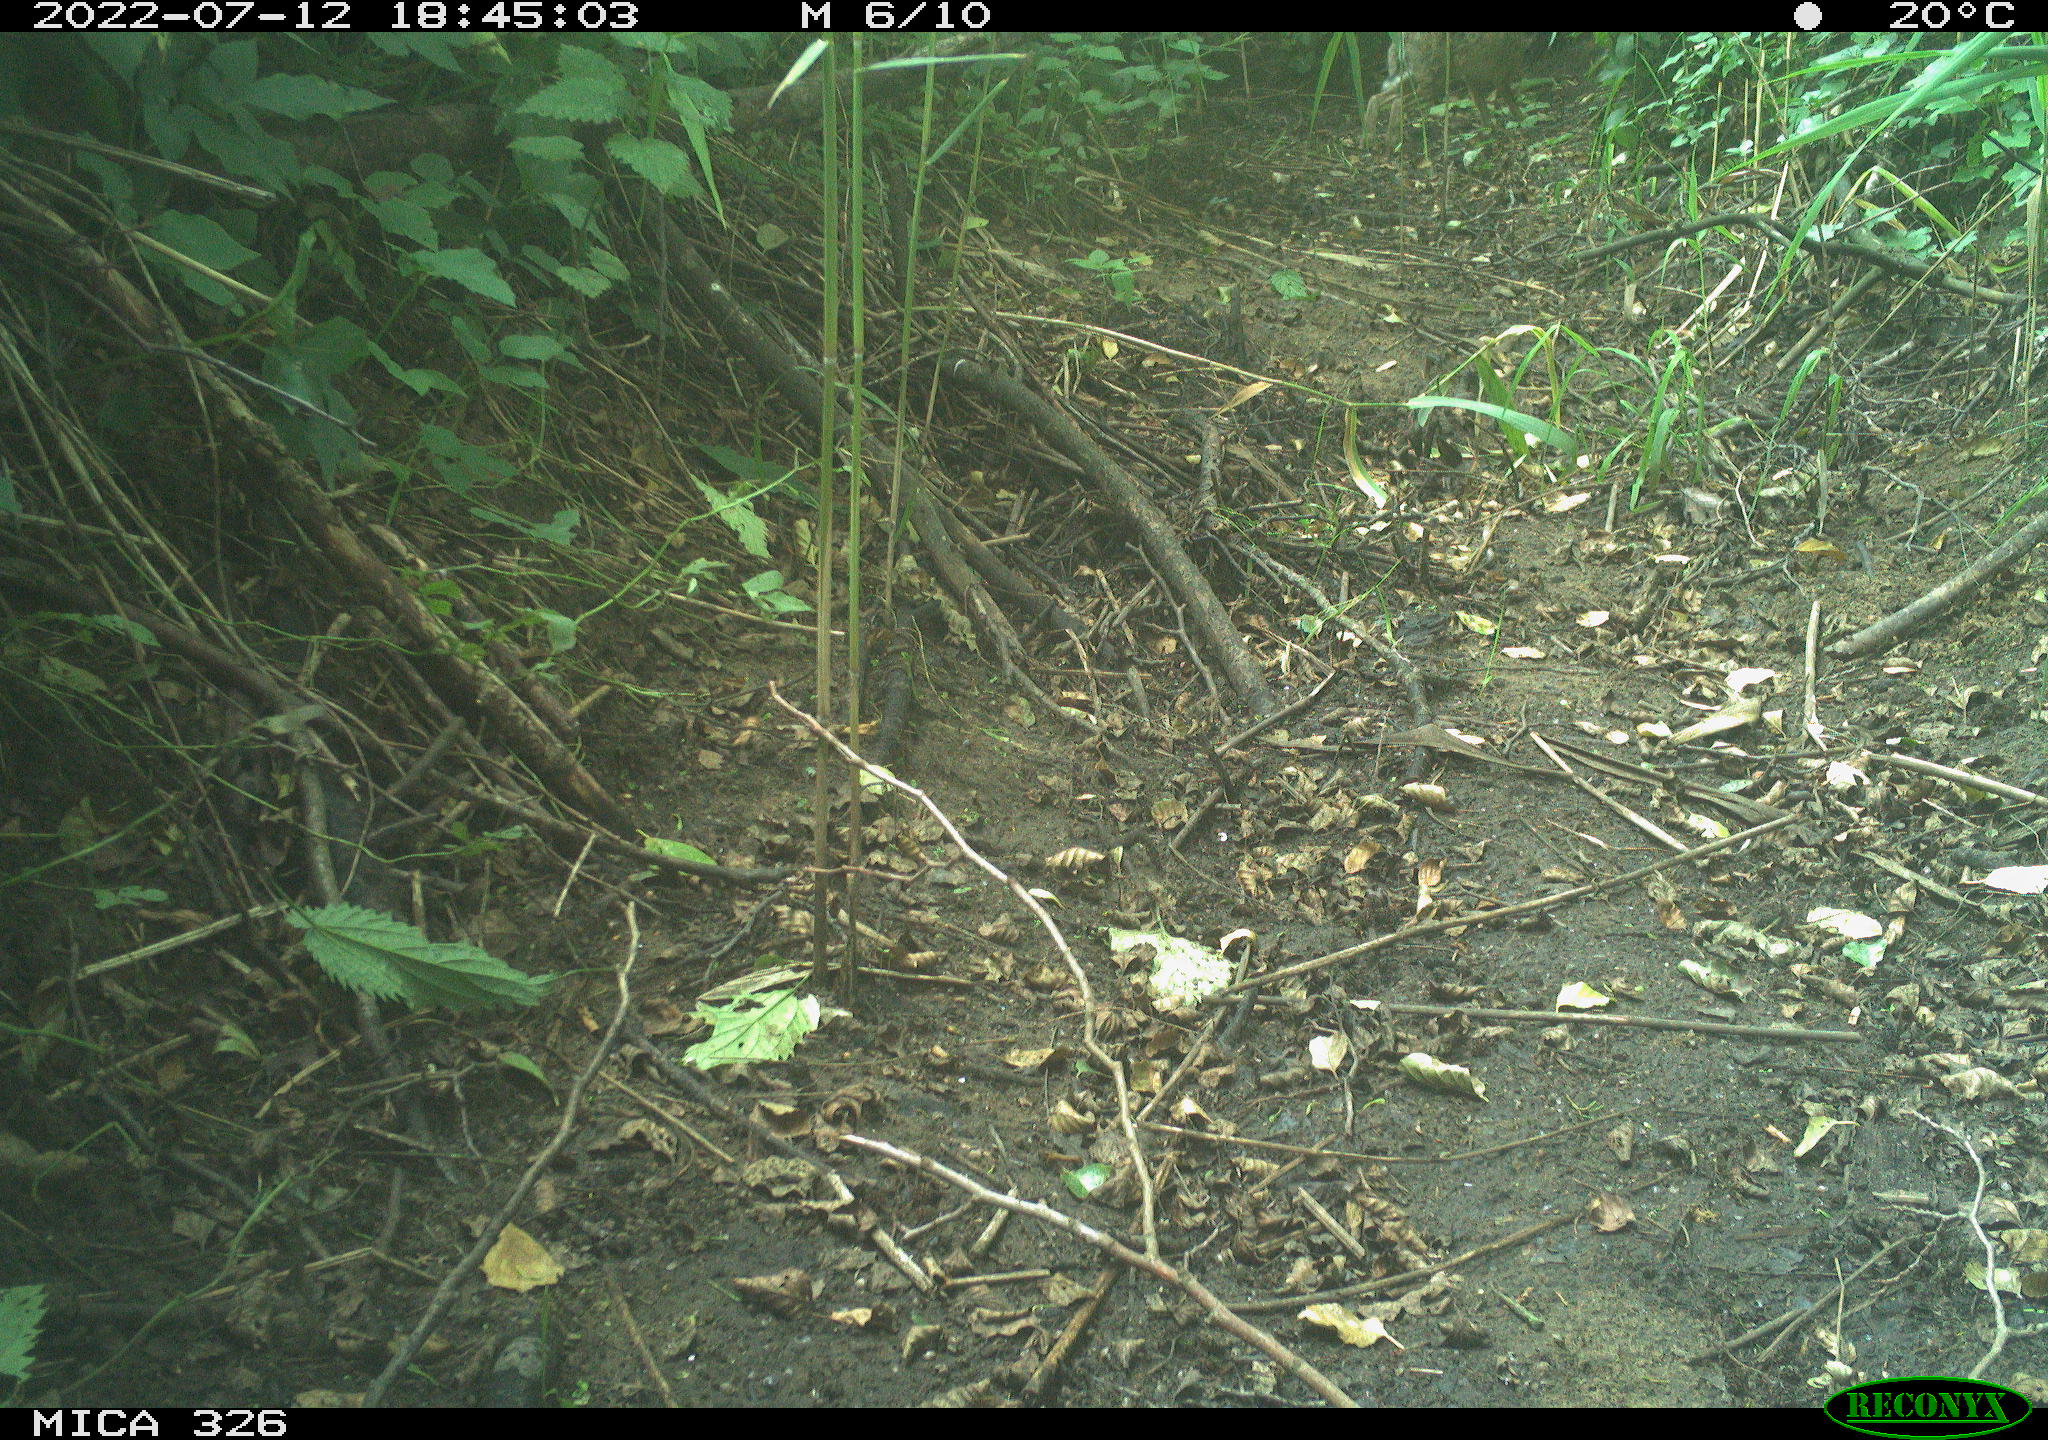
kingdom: Animalia
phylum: Chordata
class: Mammalia
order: Lagomorpha
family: Leporidae
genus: Lepus
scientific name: Lepus europaeus
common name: European hare
